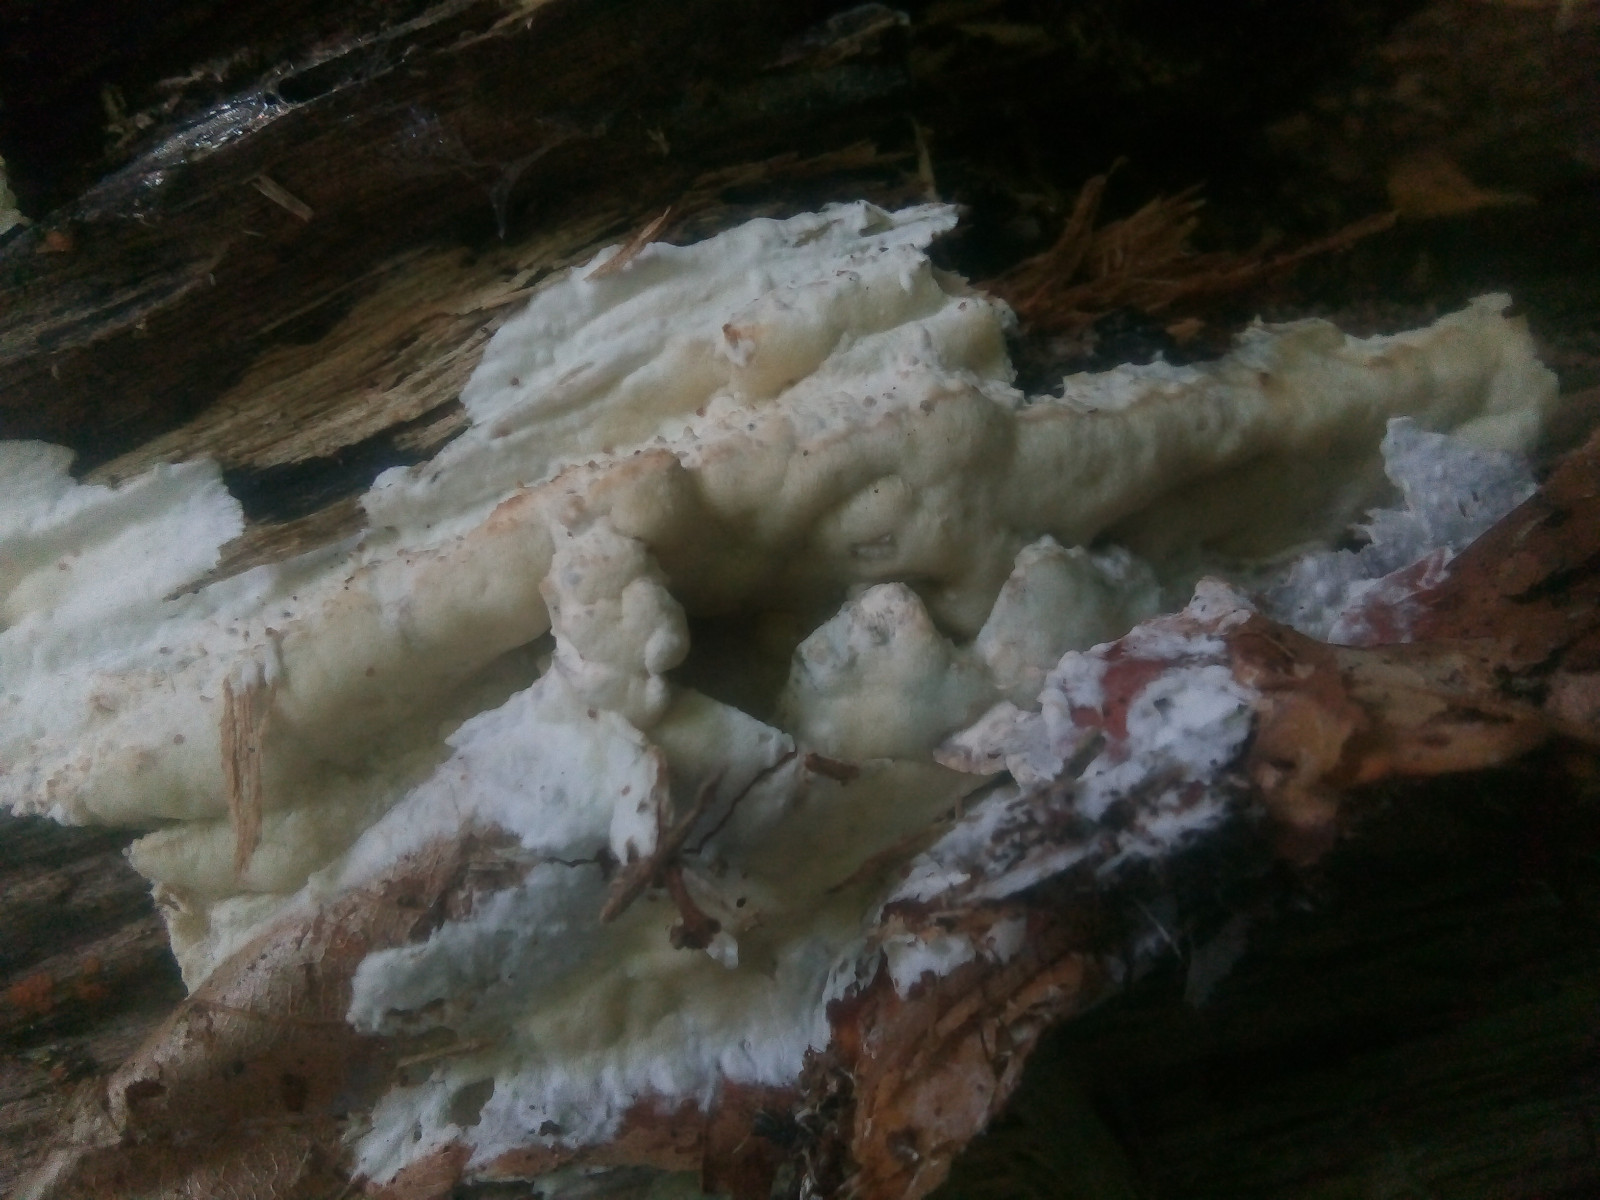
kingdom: Fungi
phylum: Basidiomycota
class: Agaricomycetes
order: Polyporales
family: Irpicaceae
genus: Gloeoporus
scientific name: Gloeoporus pannocinctus
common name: grøngul foldporesvamp
